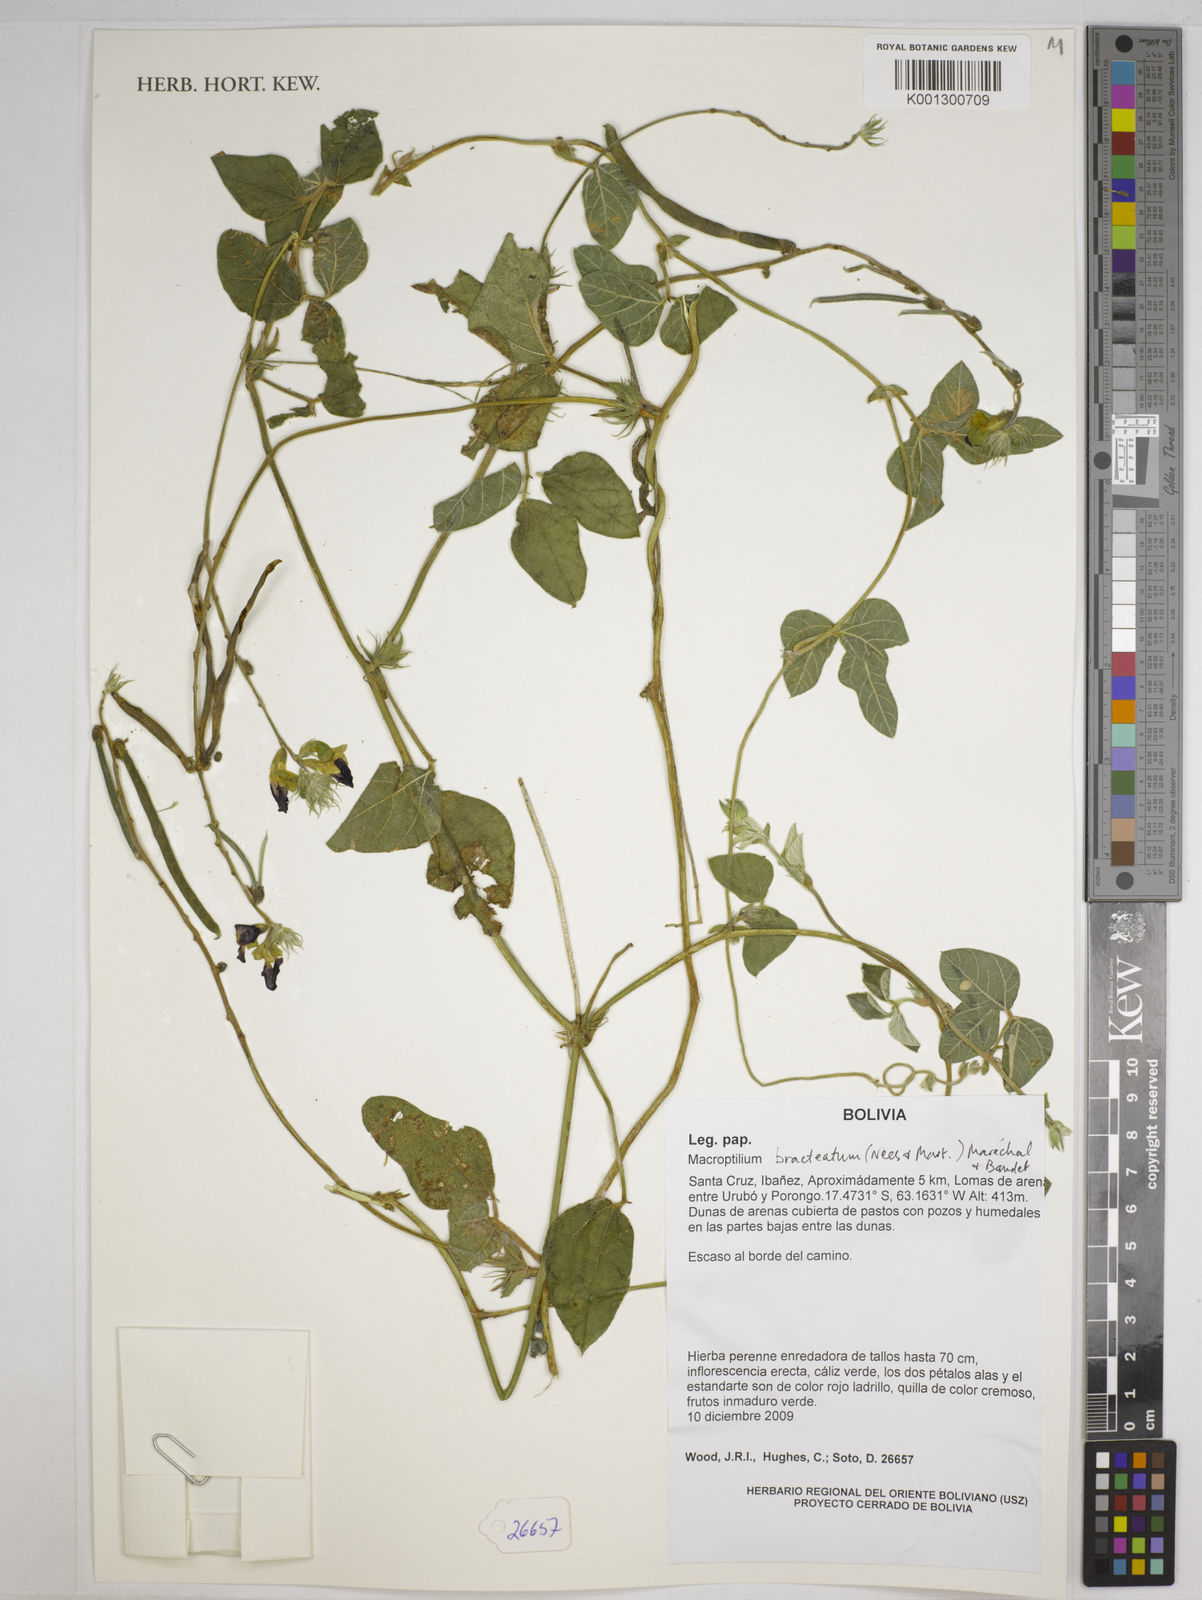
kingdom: Plantae
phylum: Tracheophyta
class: Magnoliopsida
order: Fabales
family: Fabaceae
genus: Macroptilium
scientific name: Macroptilium bracteatum
